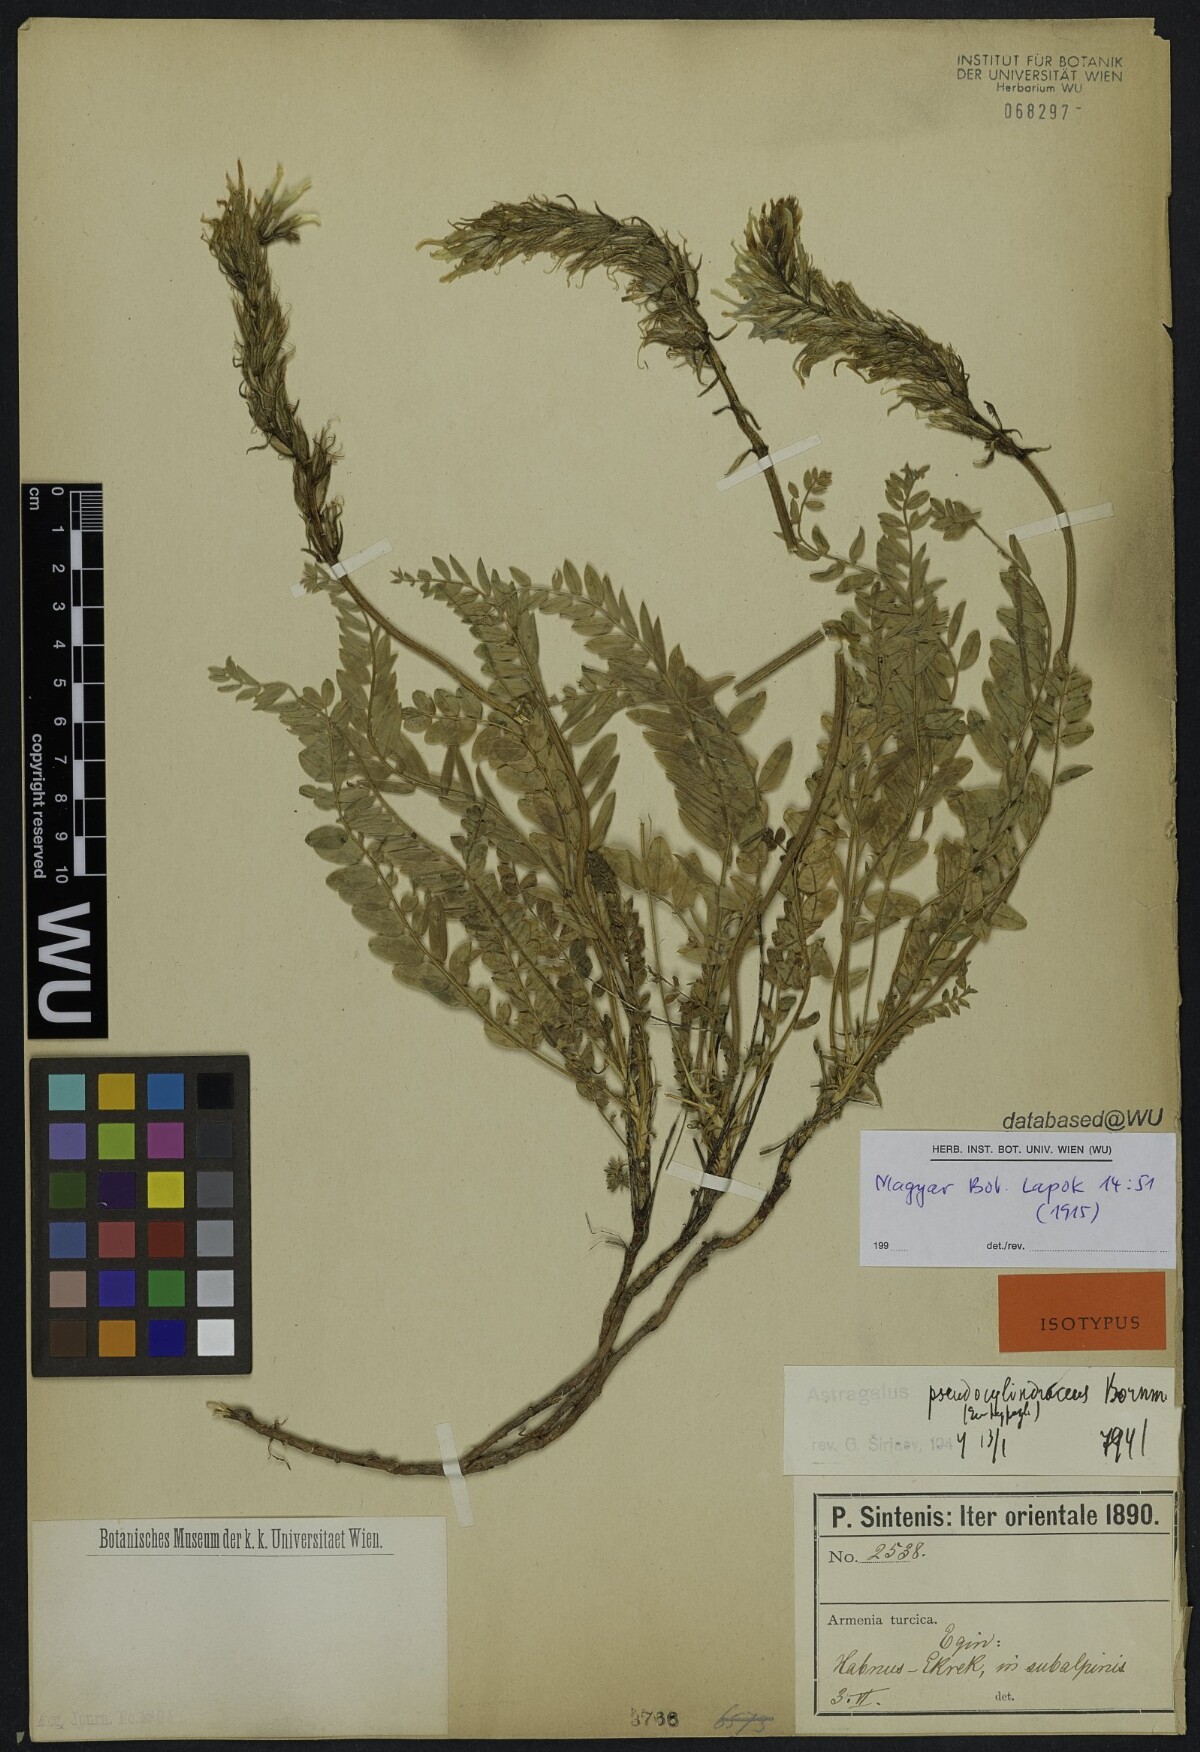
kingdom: Plantae
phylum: Tracheophyta
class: Magnoliopsida
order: Fabales
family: Fabaceae
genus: Astragalus
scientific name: Astragalus pseudocylindraceus
